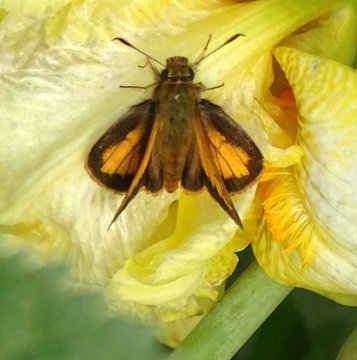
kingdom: Animalia
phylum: Arthropoda
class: Insecta
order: Lepidoptera
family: Hesperiidae
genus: Lon
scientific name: Lon hobomok
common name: Hobomok Skipper
